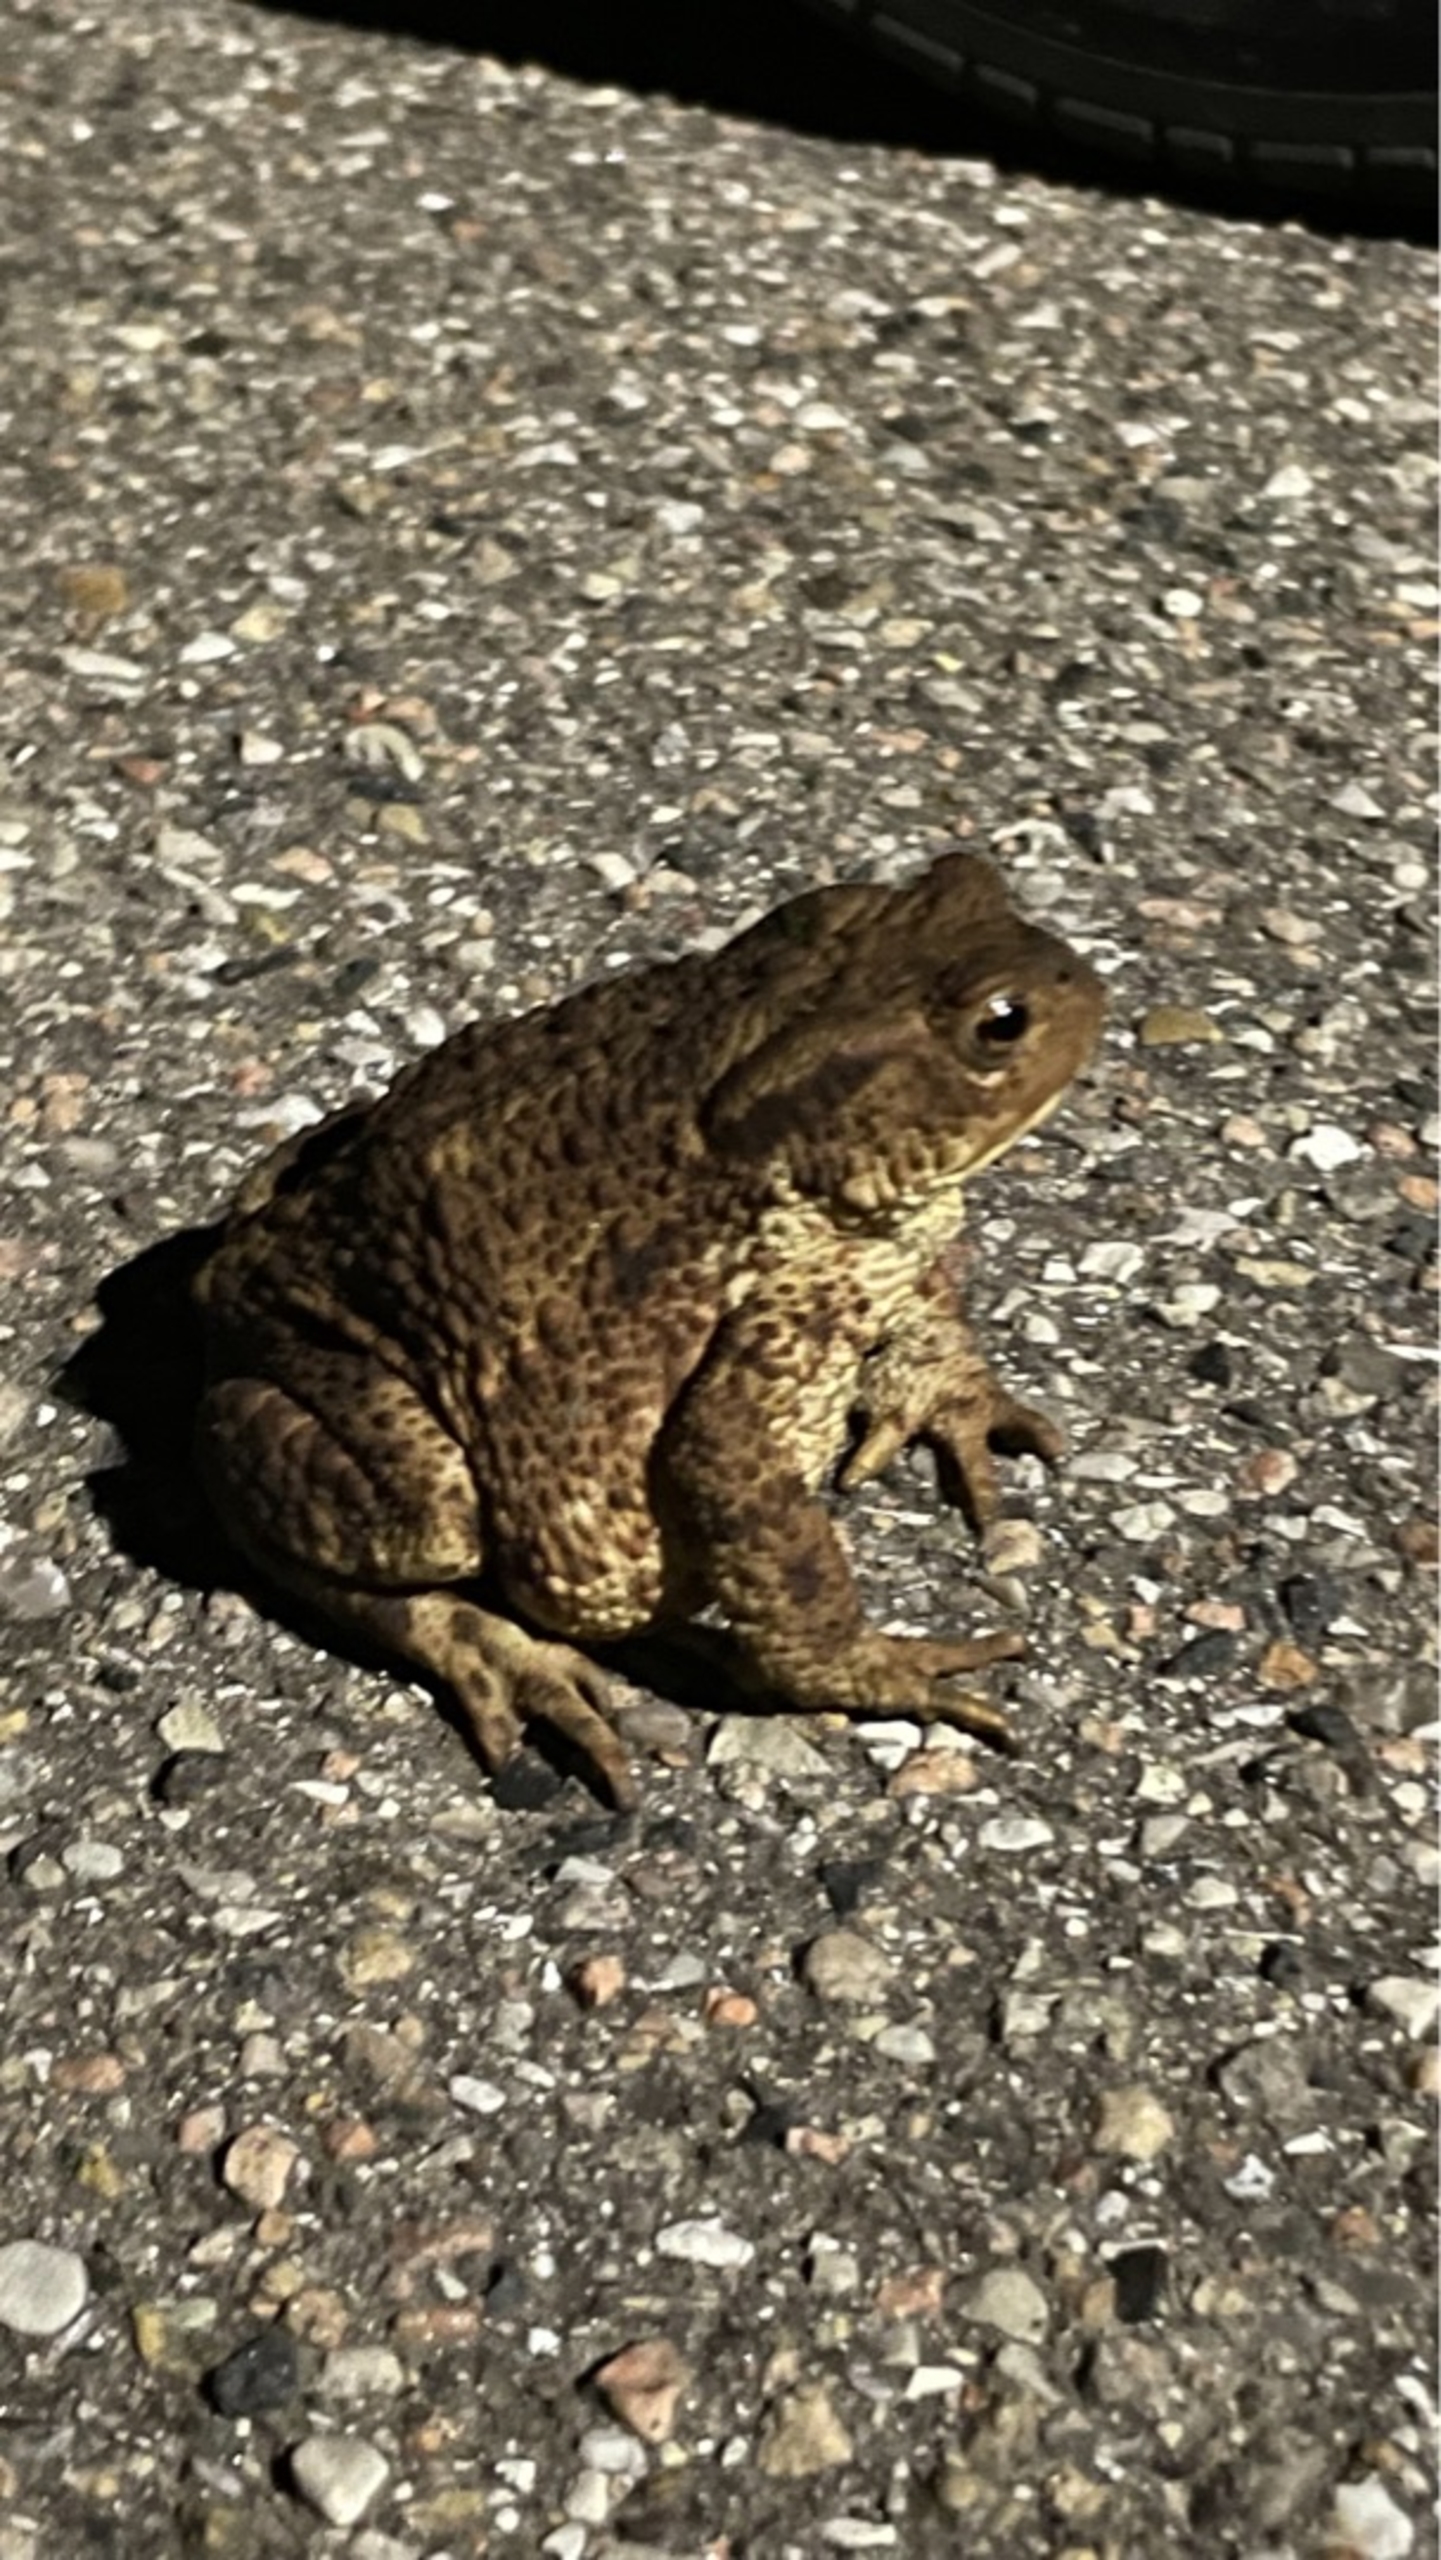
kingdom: Animalia
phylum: Chordata
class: Amphibia
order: Anura
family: Bufonidae
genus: Bufo
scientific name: Bufo bufo
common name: Skrubtudse
